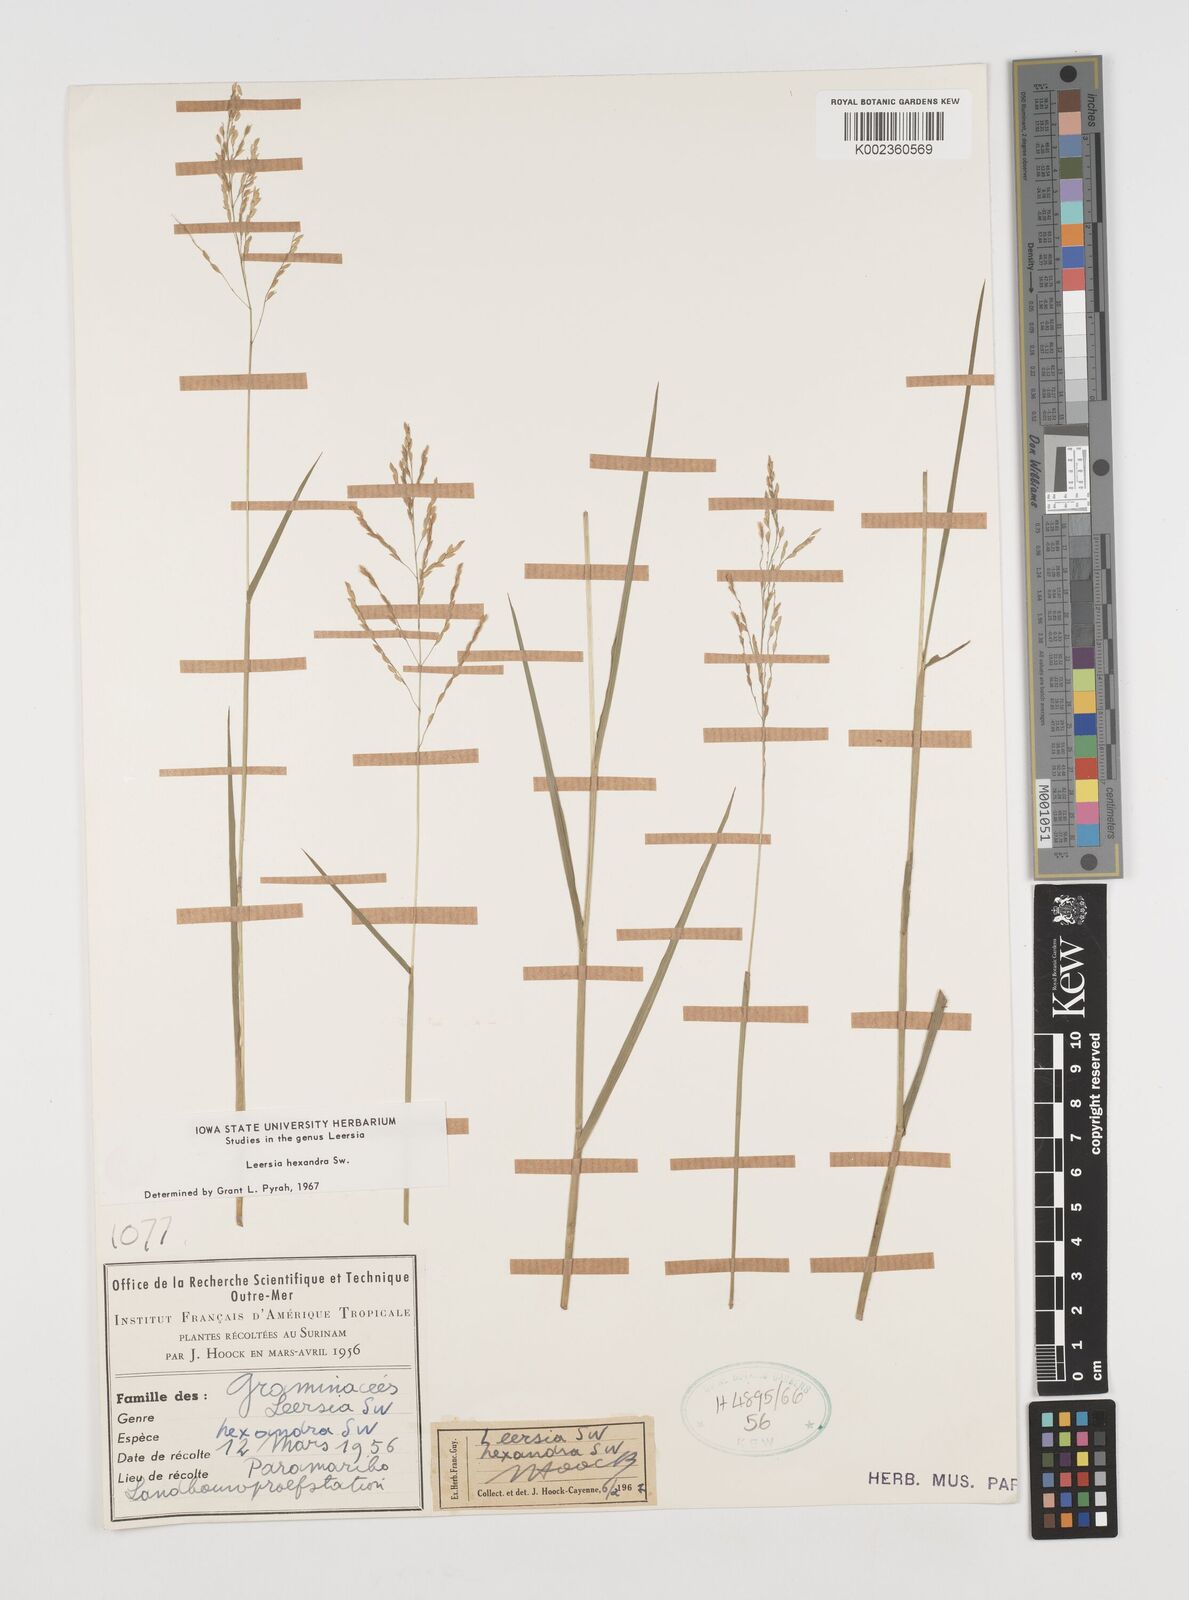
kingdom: Plantae
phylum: Tracheophyta
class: Liliopsida
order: Poales
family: Poaceae
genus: Leersia
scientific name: Leersia hexandra
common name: Southern cut grass
